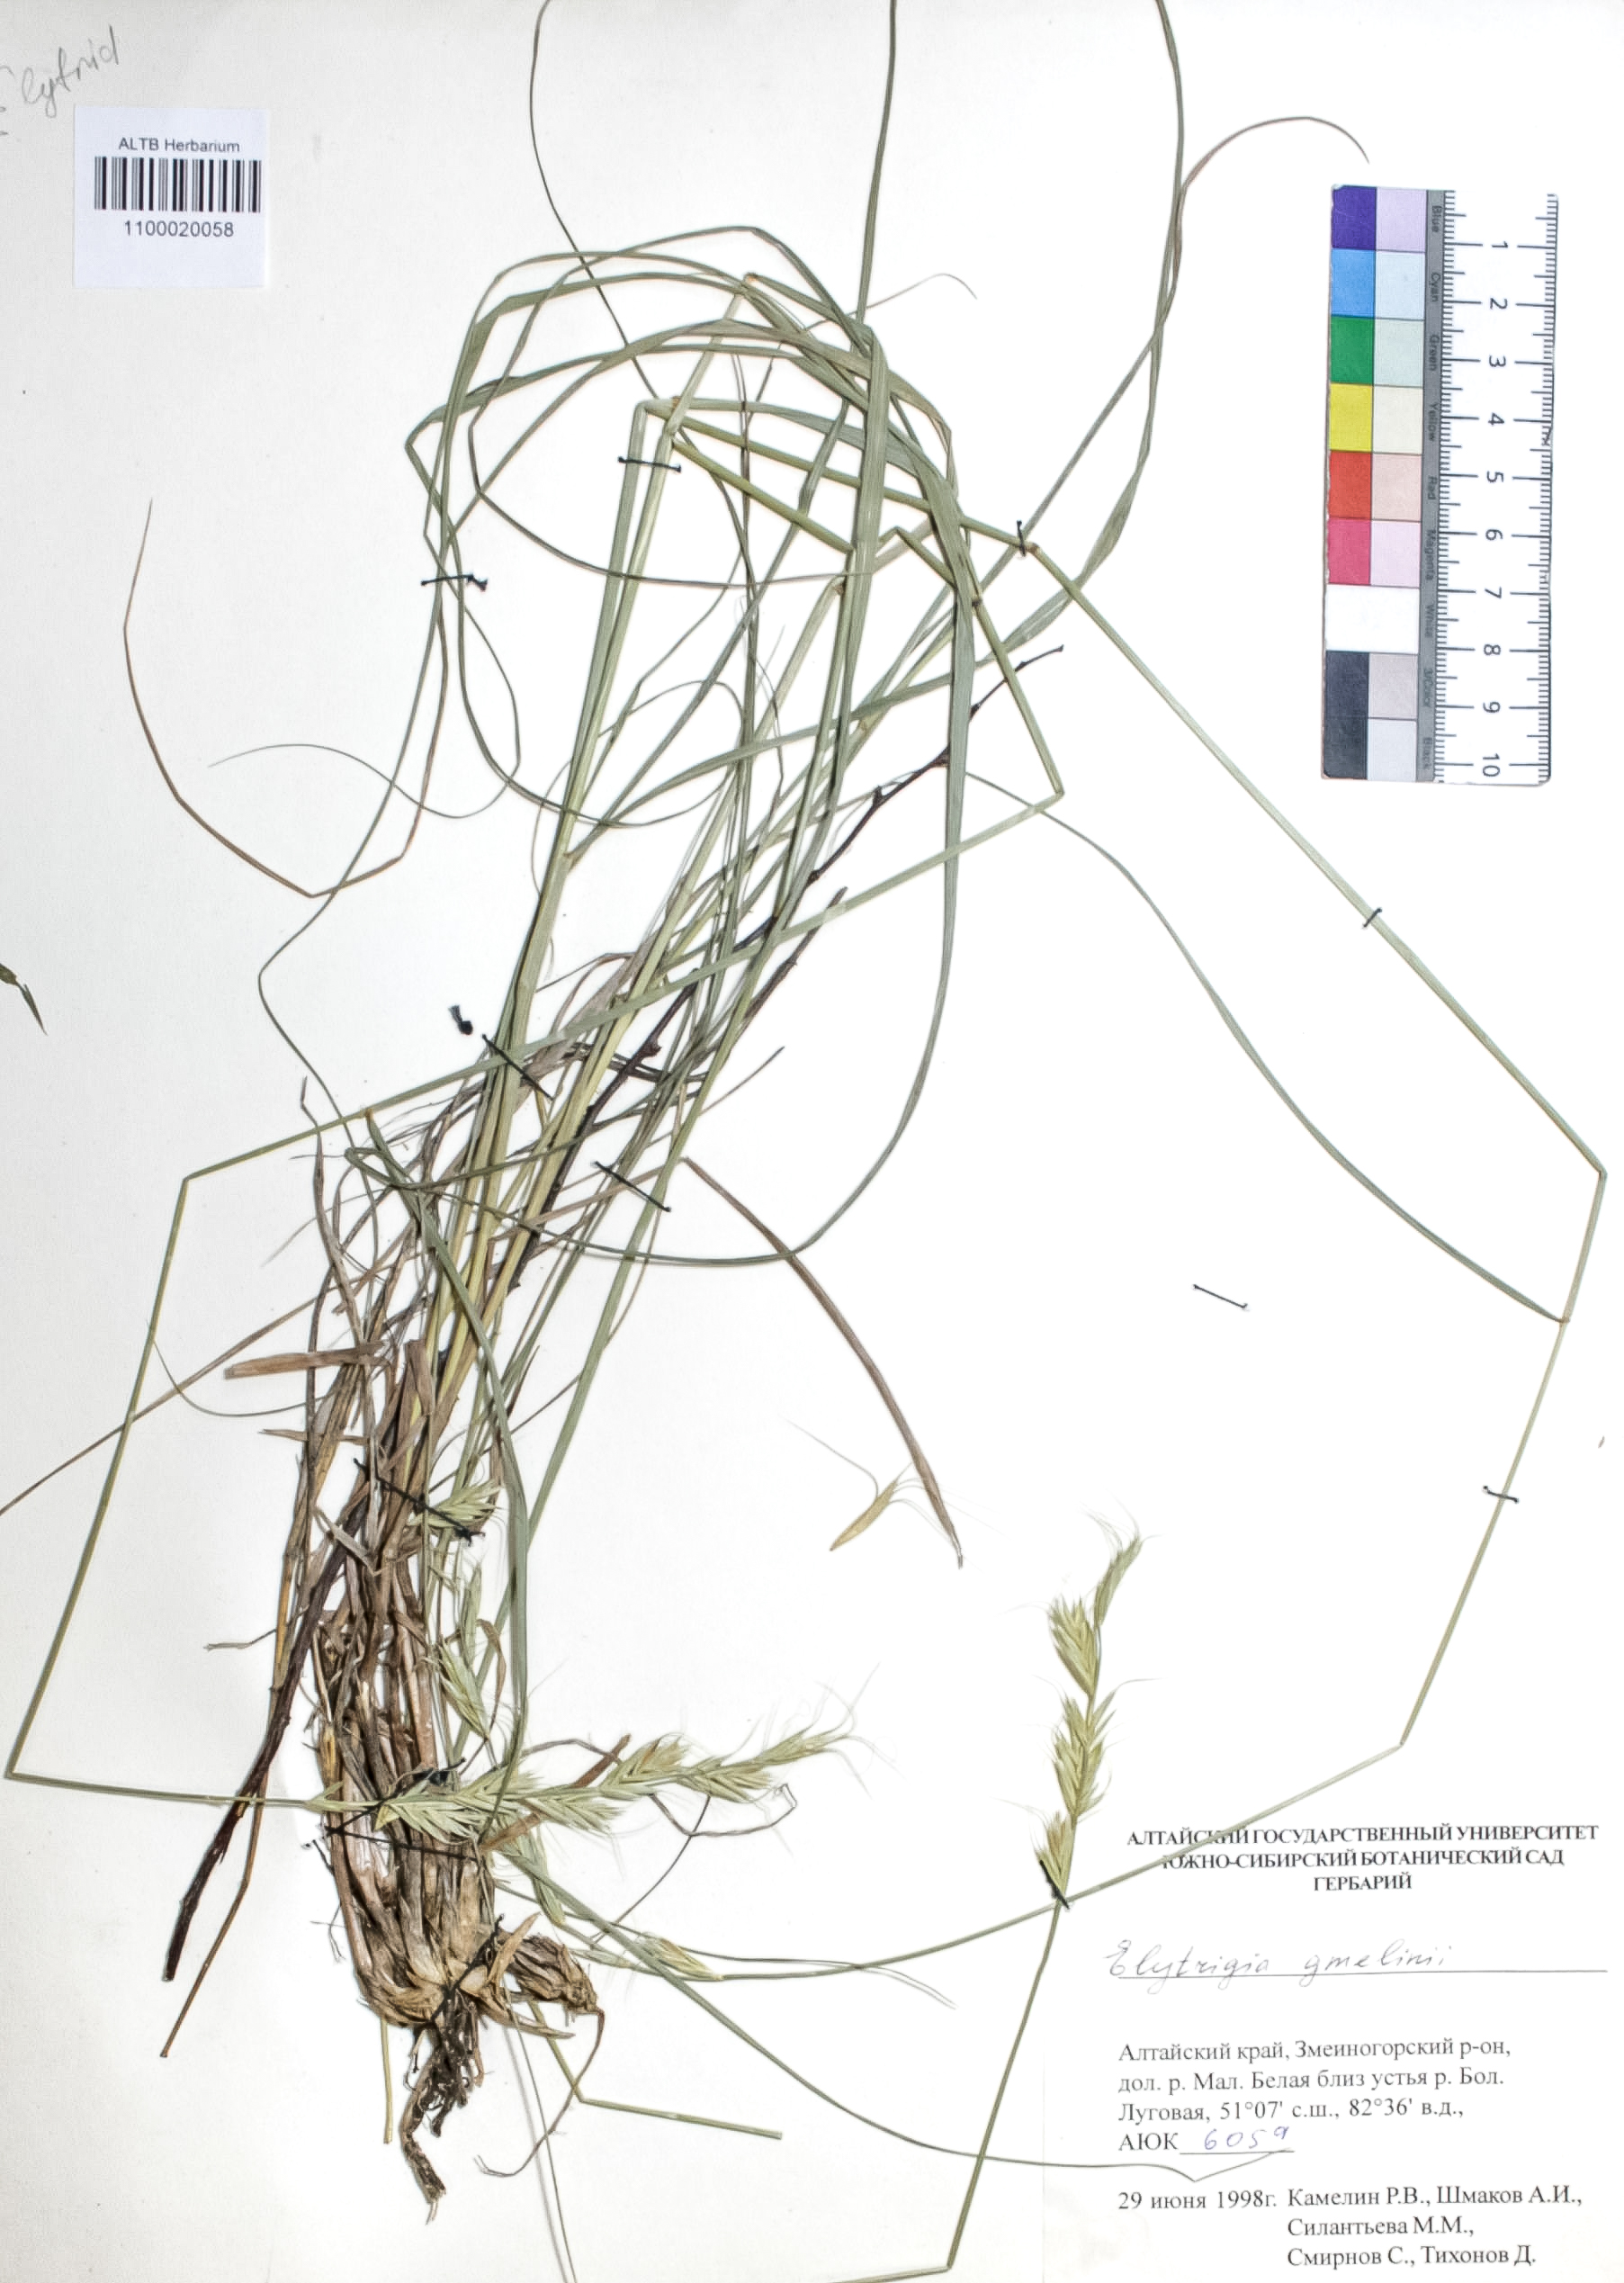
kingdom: Plantae
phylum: Tracheophyta
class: Liliopsida
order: Poales
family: Poaceae
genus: Pseudoroegneria
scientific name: Pseudoroegneria reflexiaristata
